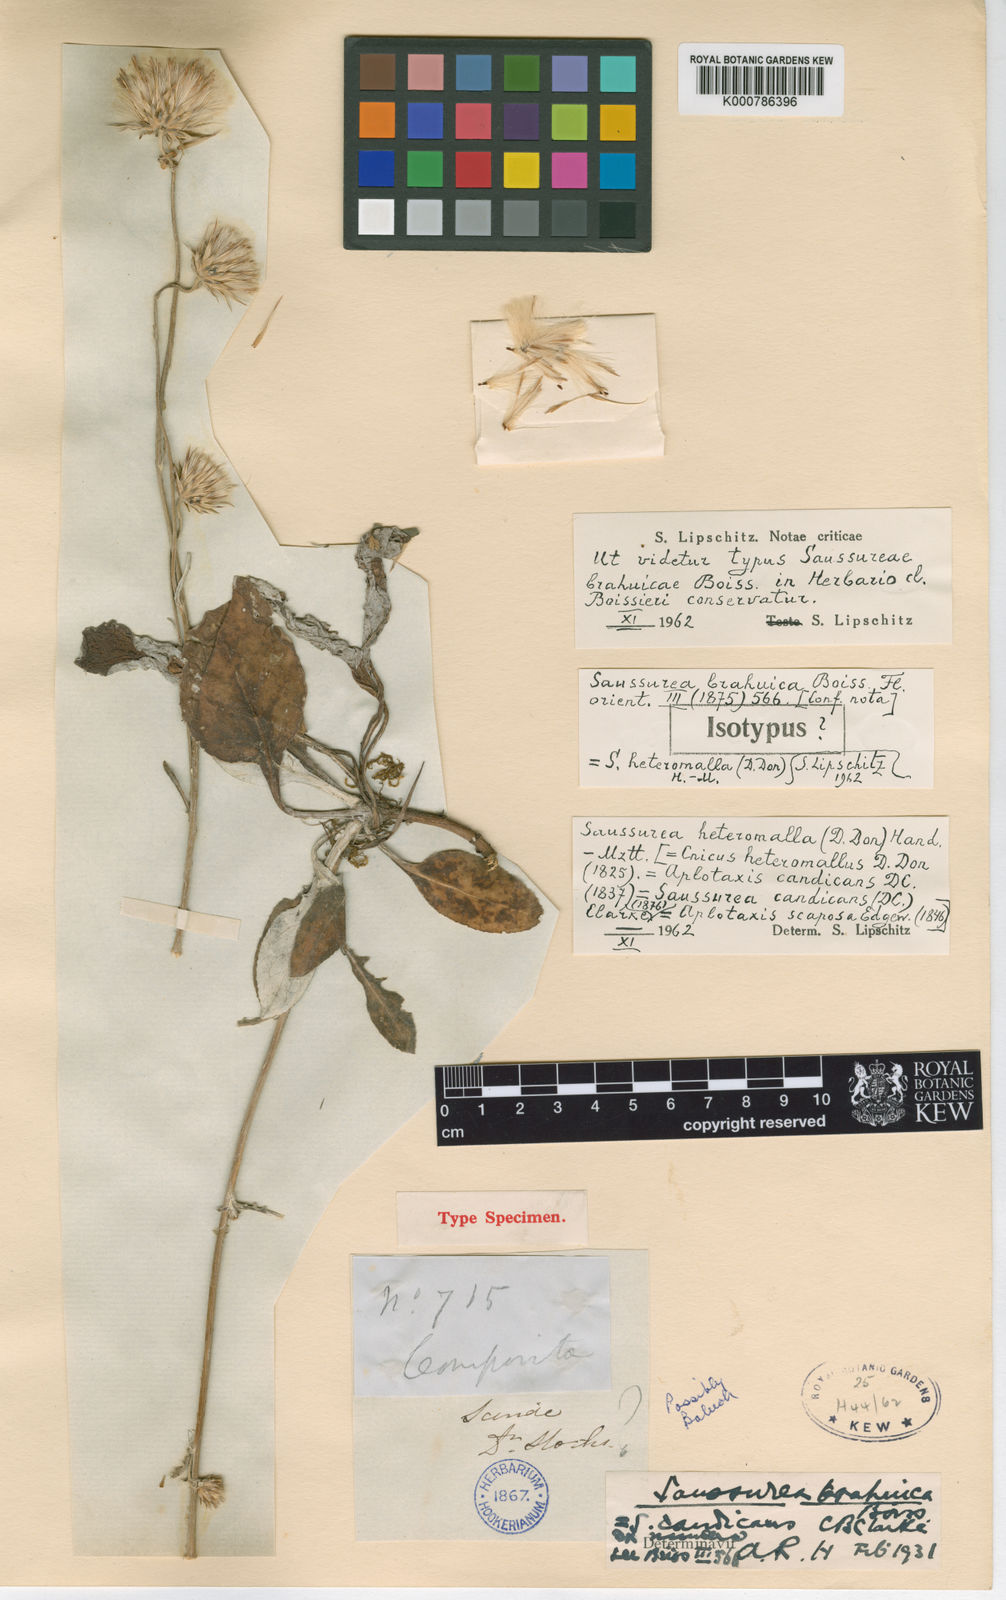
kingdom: Plantae
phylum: Tracheophyta
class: Magnoliopsida
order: Asterales
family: Asteraceae
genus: Jurinea
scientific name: Jurinea heteromalla
